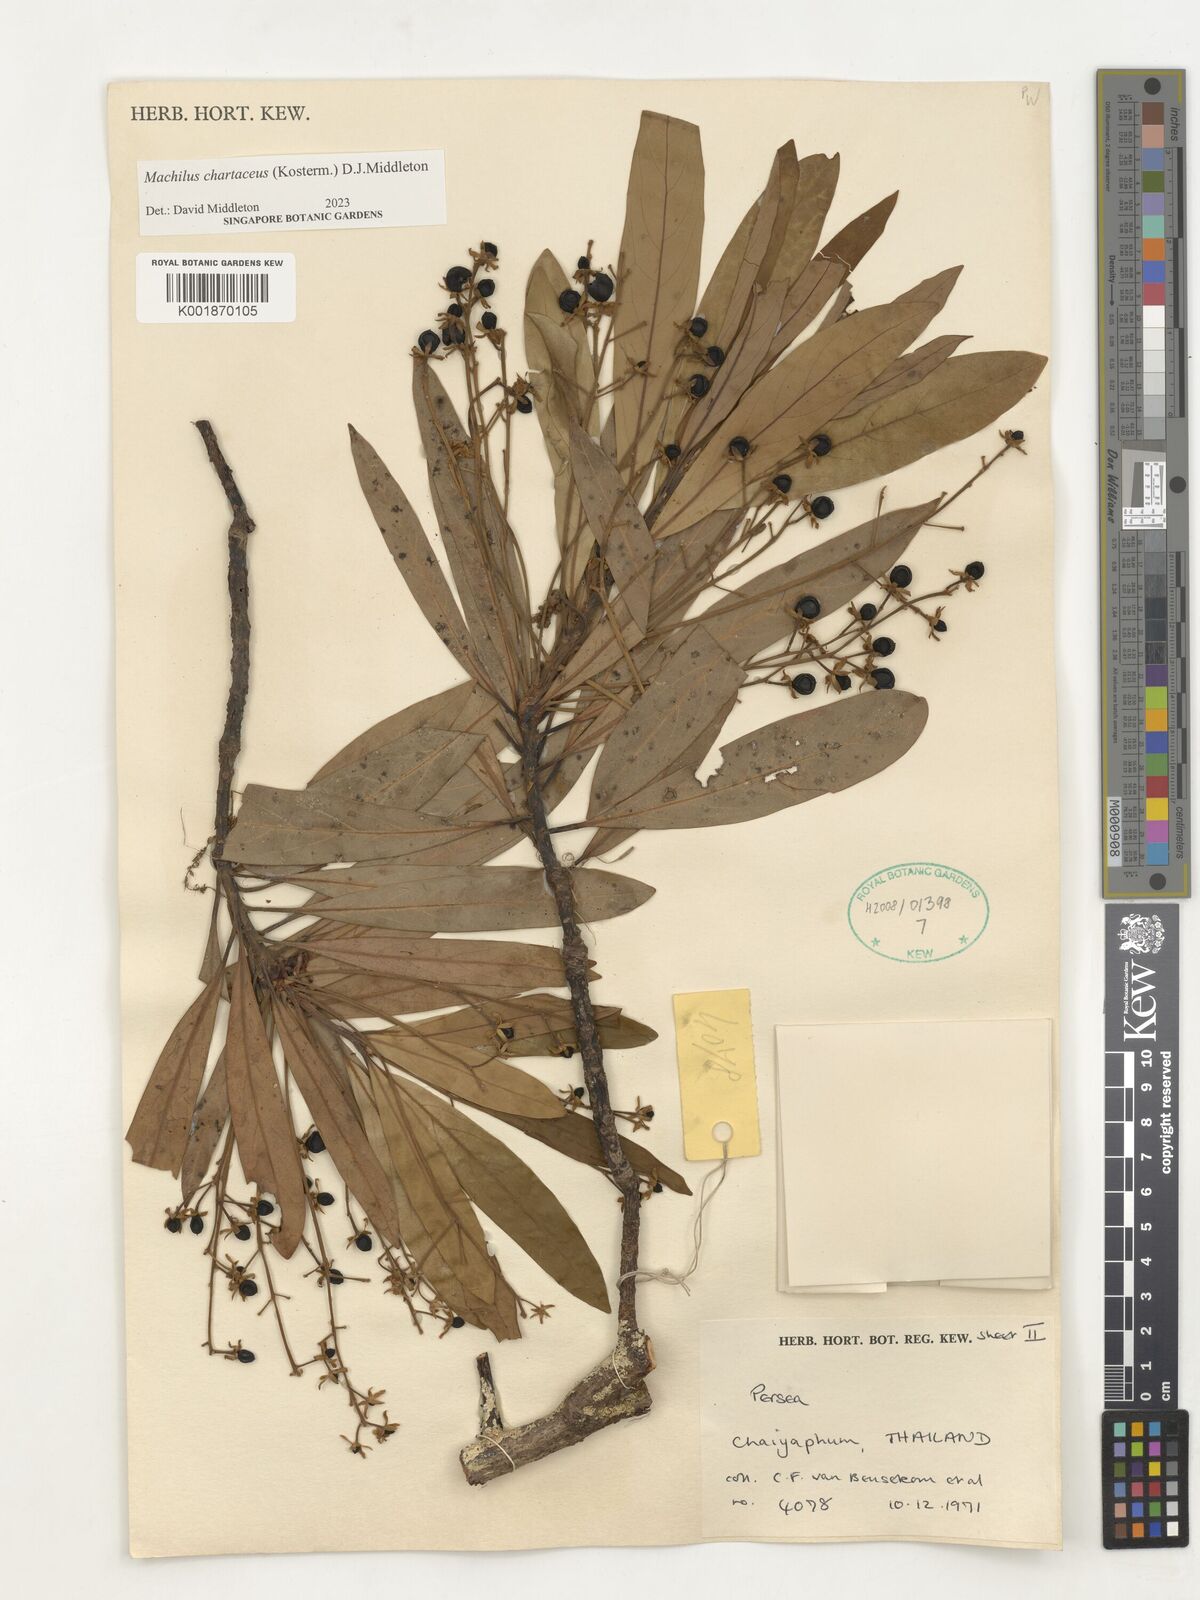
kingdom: Plantae
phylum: Tracheophyta
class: Magnoliopsida
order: Laurales
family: Lauraceae
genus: Machilus
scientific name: Machilus
